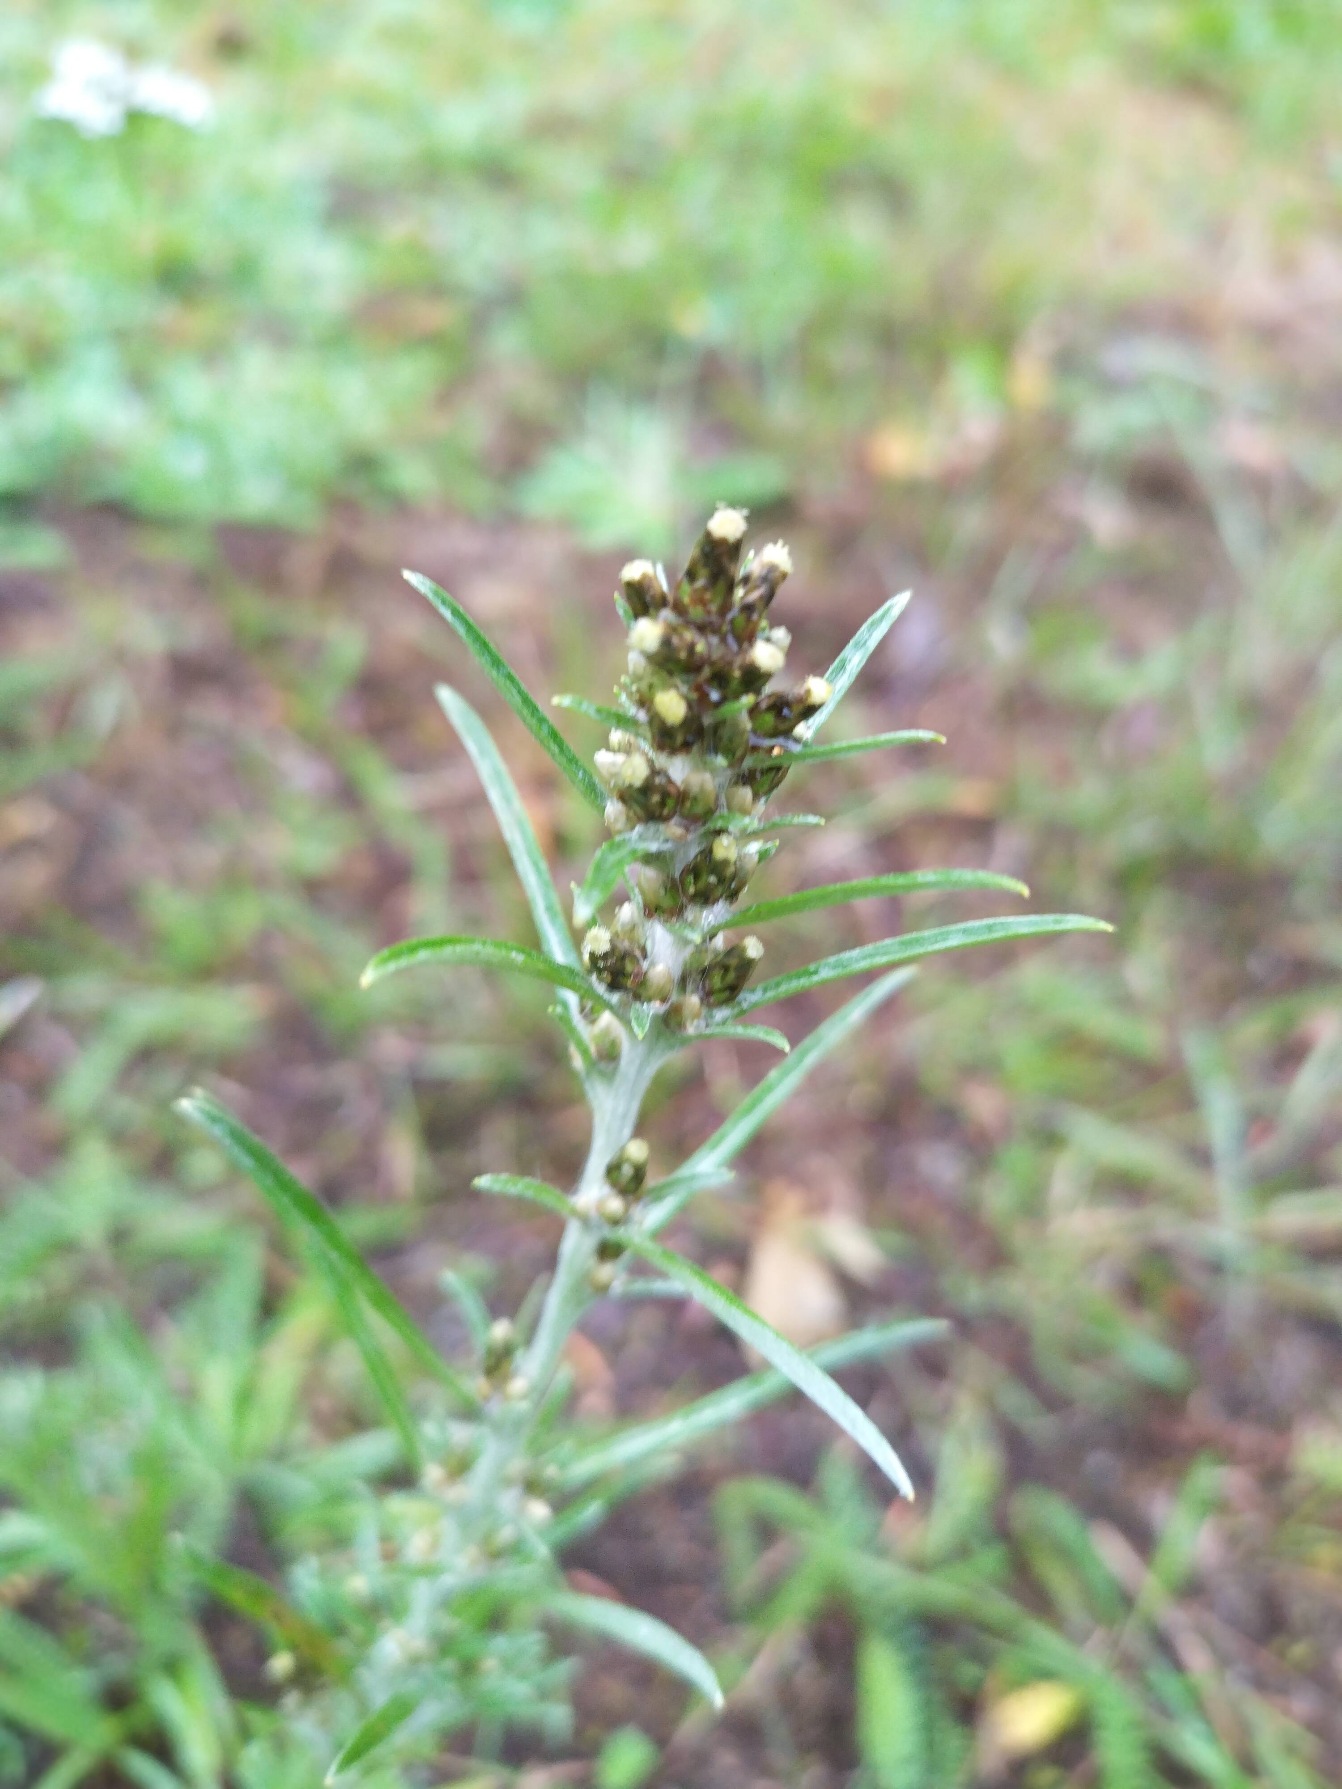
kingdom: Plantae
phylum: Tracheophyta
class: Magnoliopsida
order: Asterales
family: Asteraceae
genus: Omalotheca
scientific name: Omalotheca sylvatica
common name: Rank evighedsblomst
